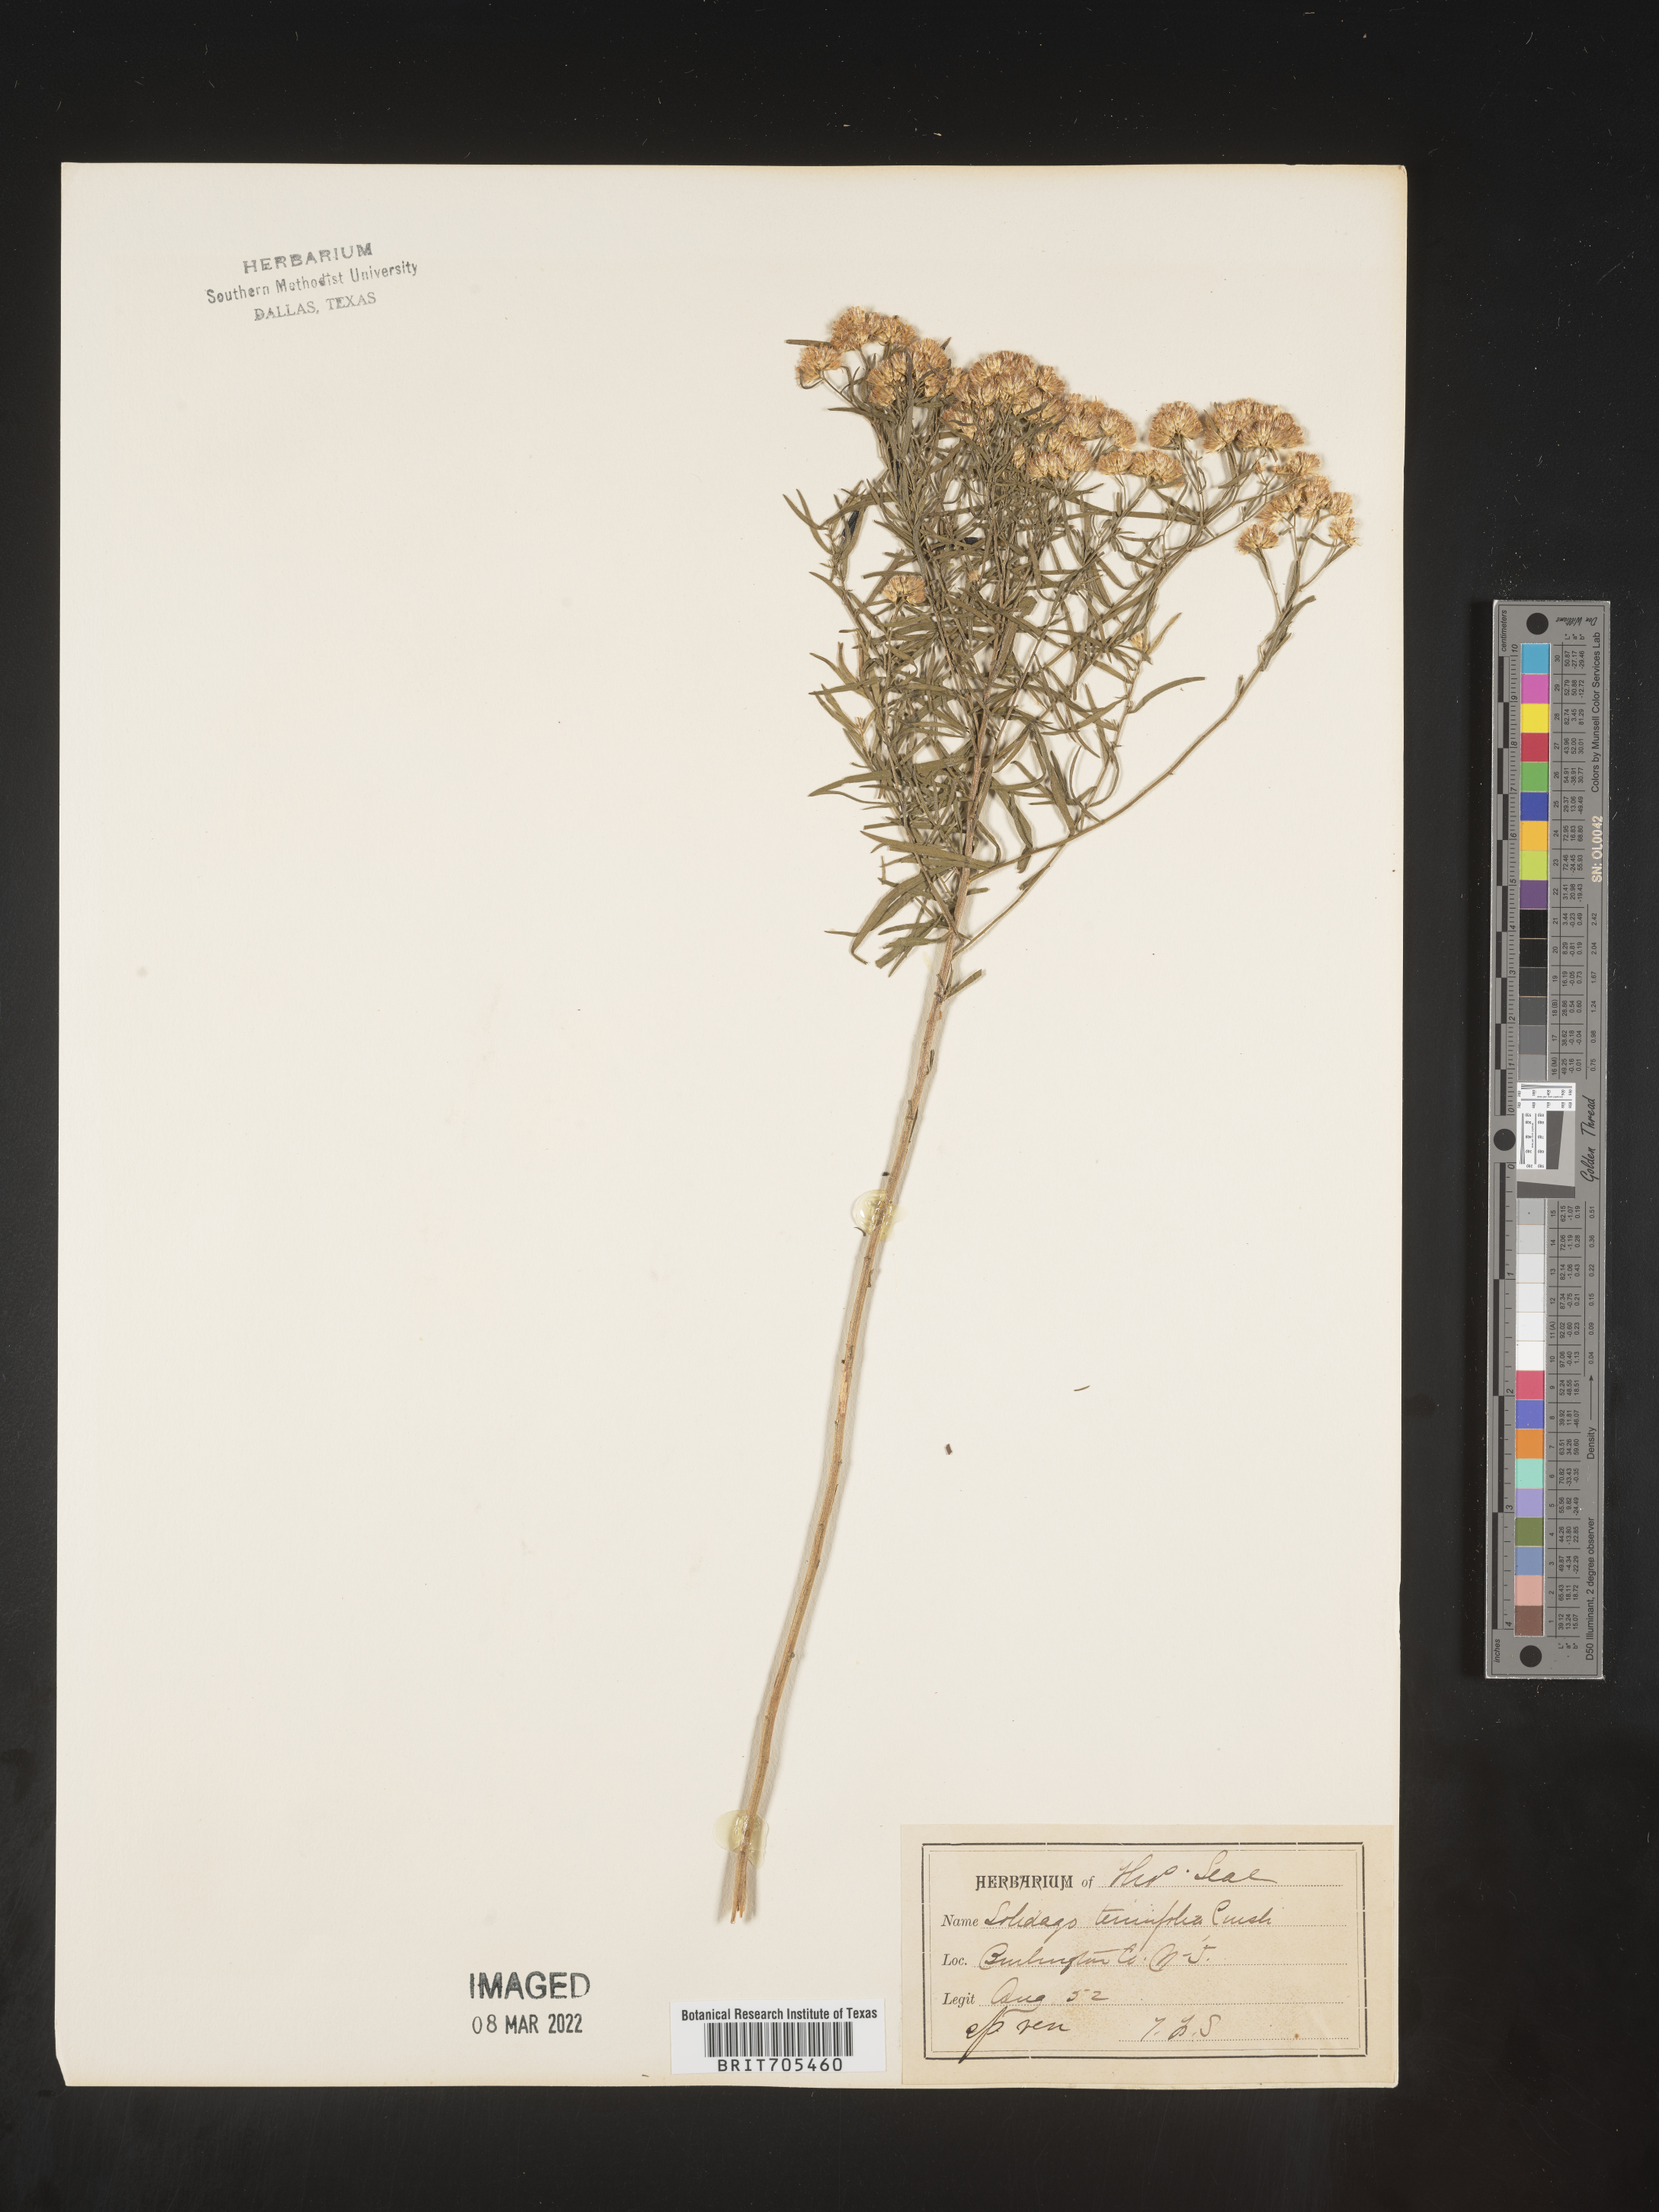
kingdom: Plantae
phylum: Tracheophyta
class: Magnoliopsida
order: Asterales
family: Asteraceae
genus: Euthamia
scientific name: Euthamia caroliniana
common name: Coastal plain goldentop
